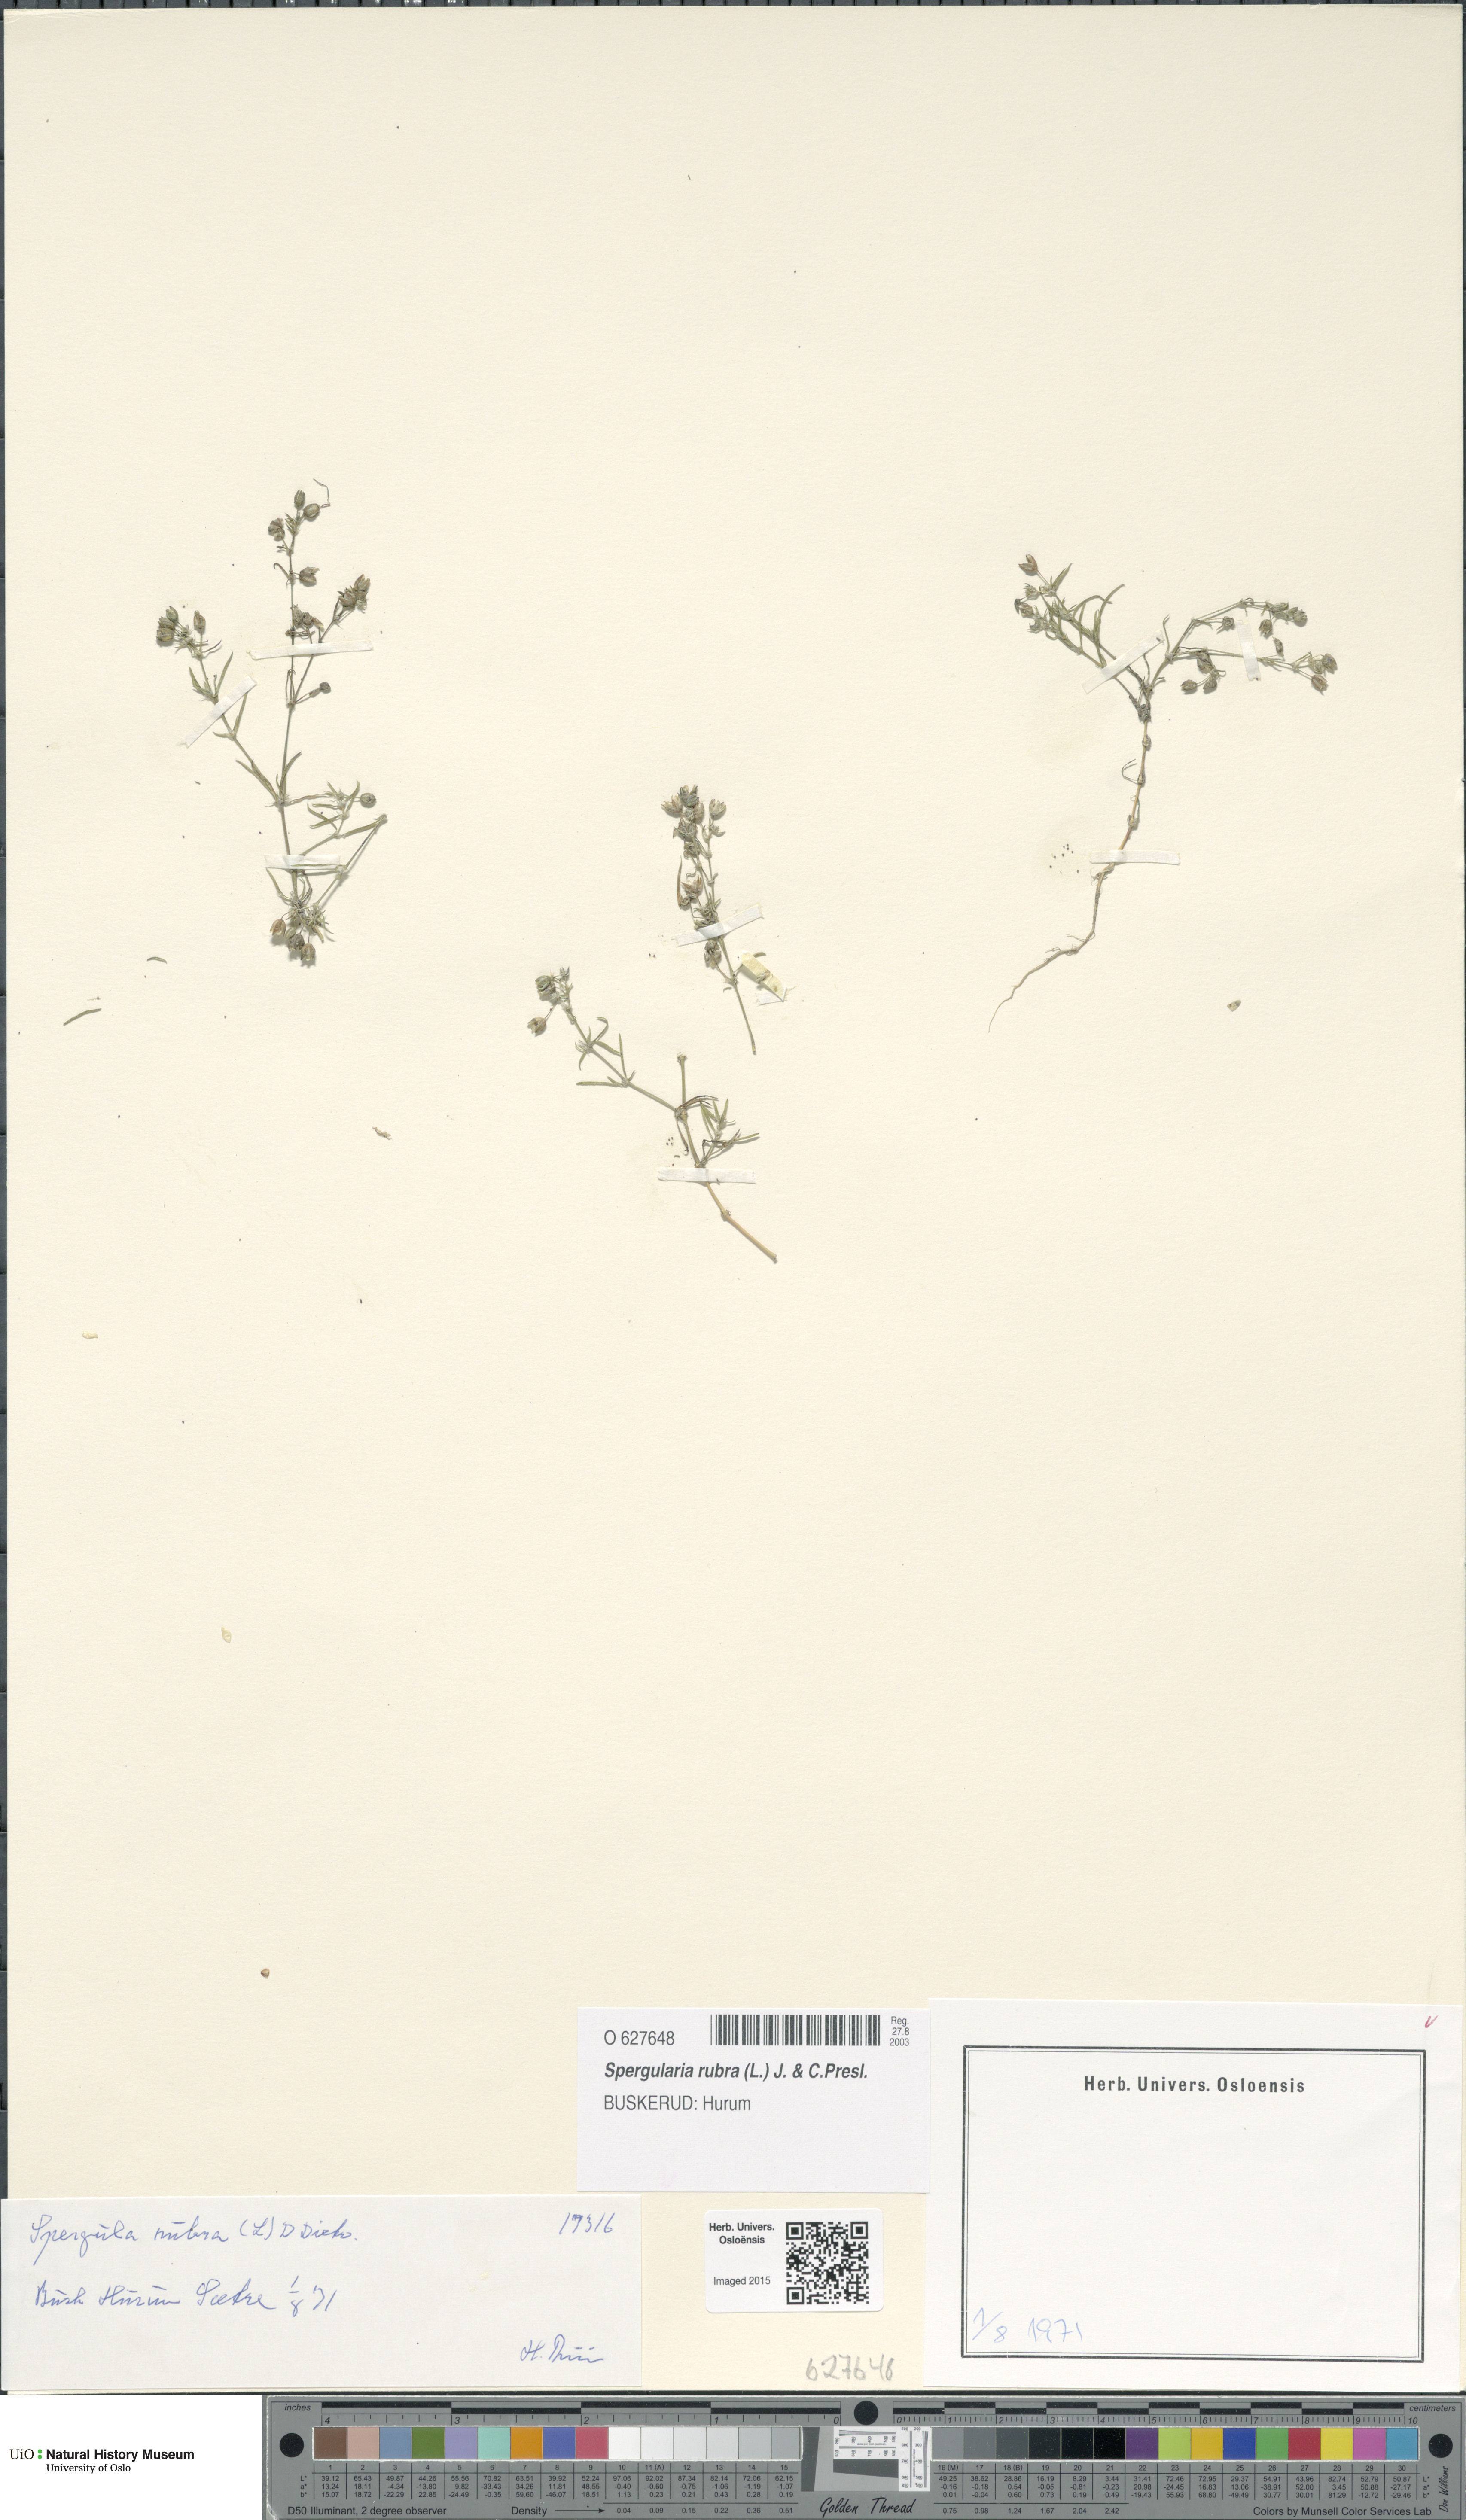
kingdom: Plantae
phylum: Tracheophyta
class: Magnoliopsida
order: Caryophyllales
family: Caryophyllaceae
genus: Spergularia
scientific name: Spergularia rubra
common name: Red sand-spurrey
